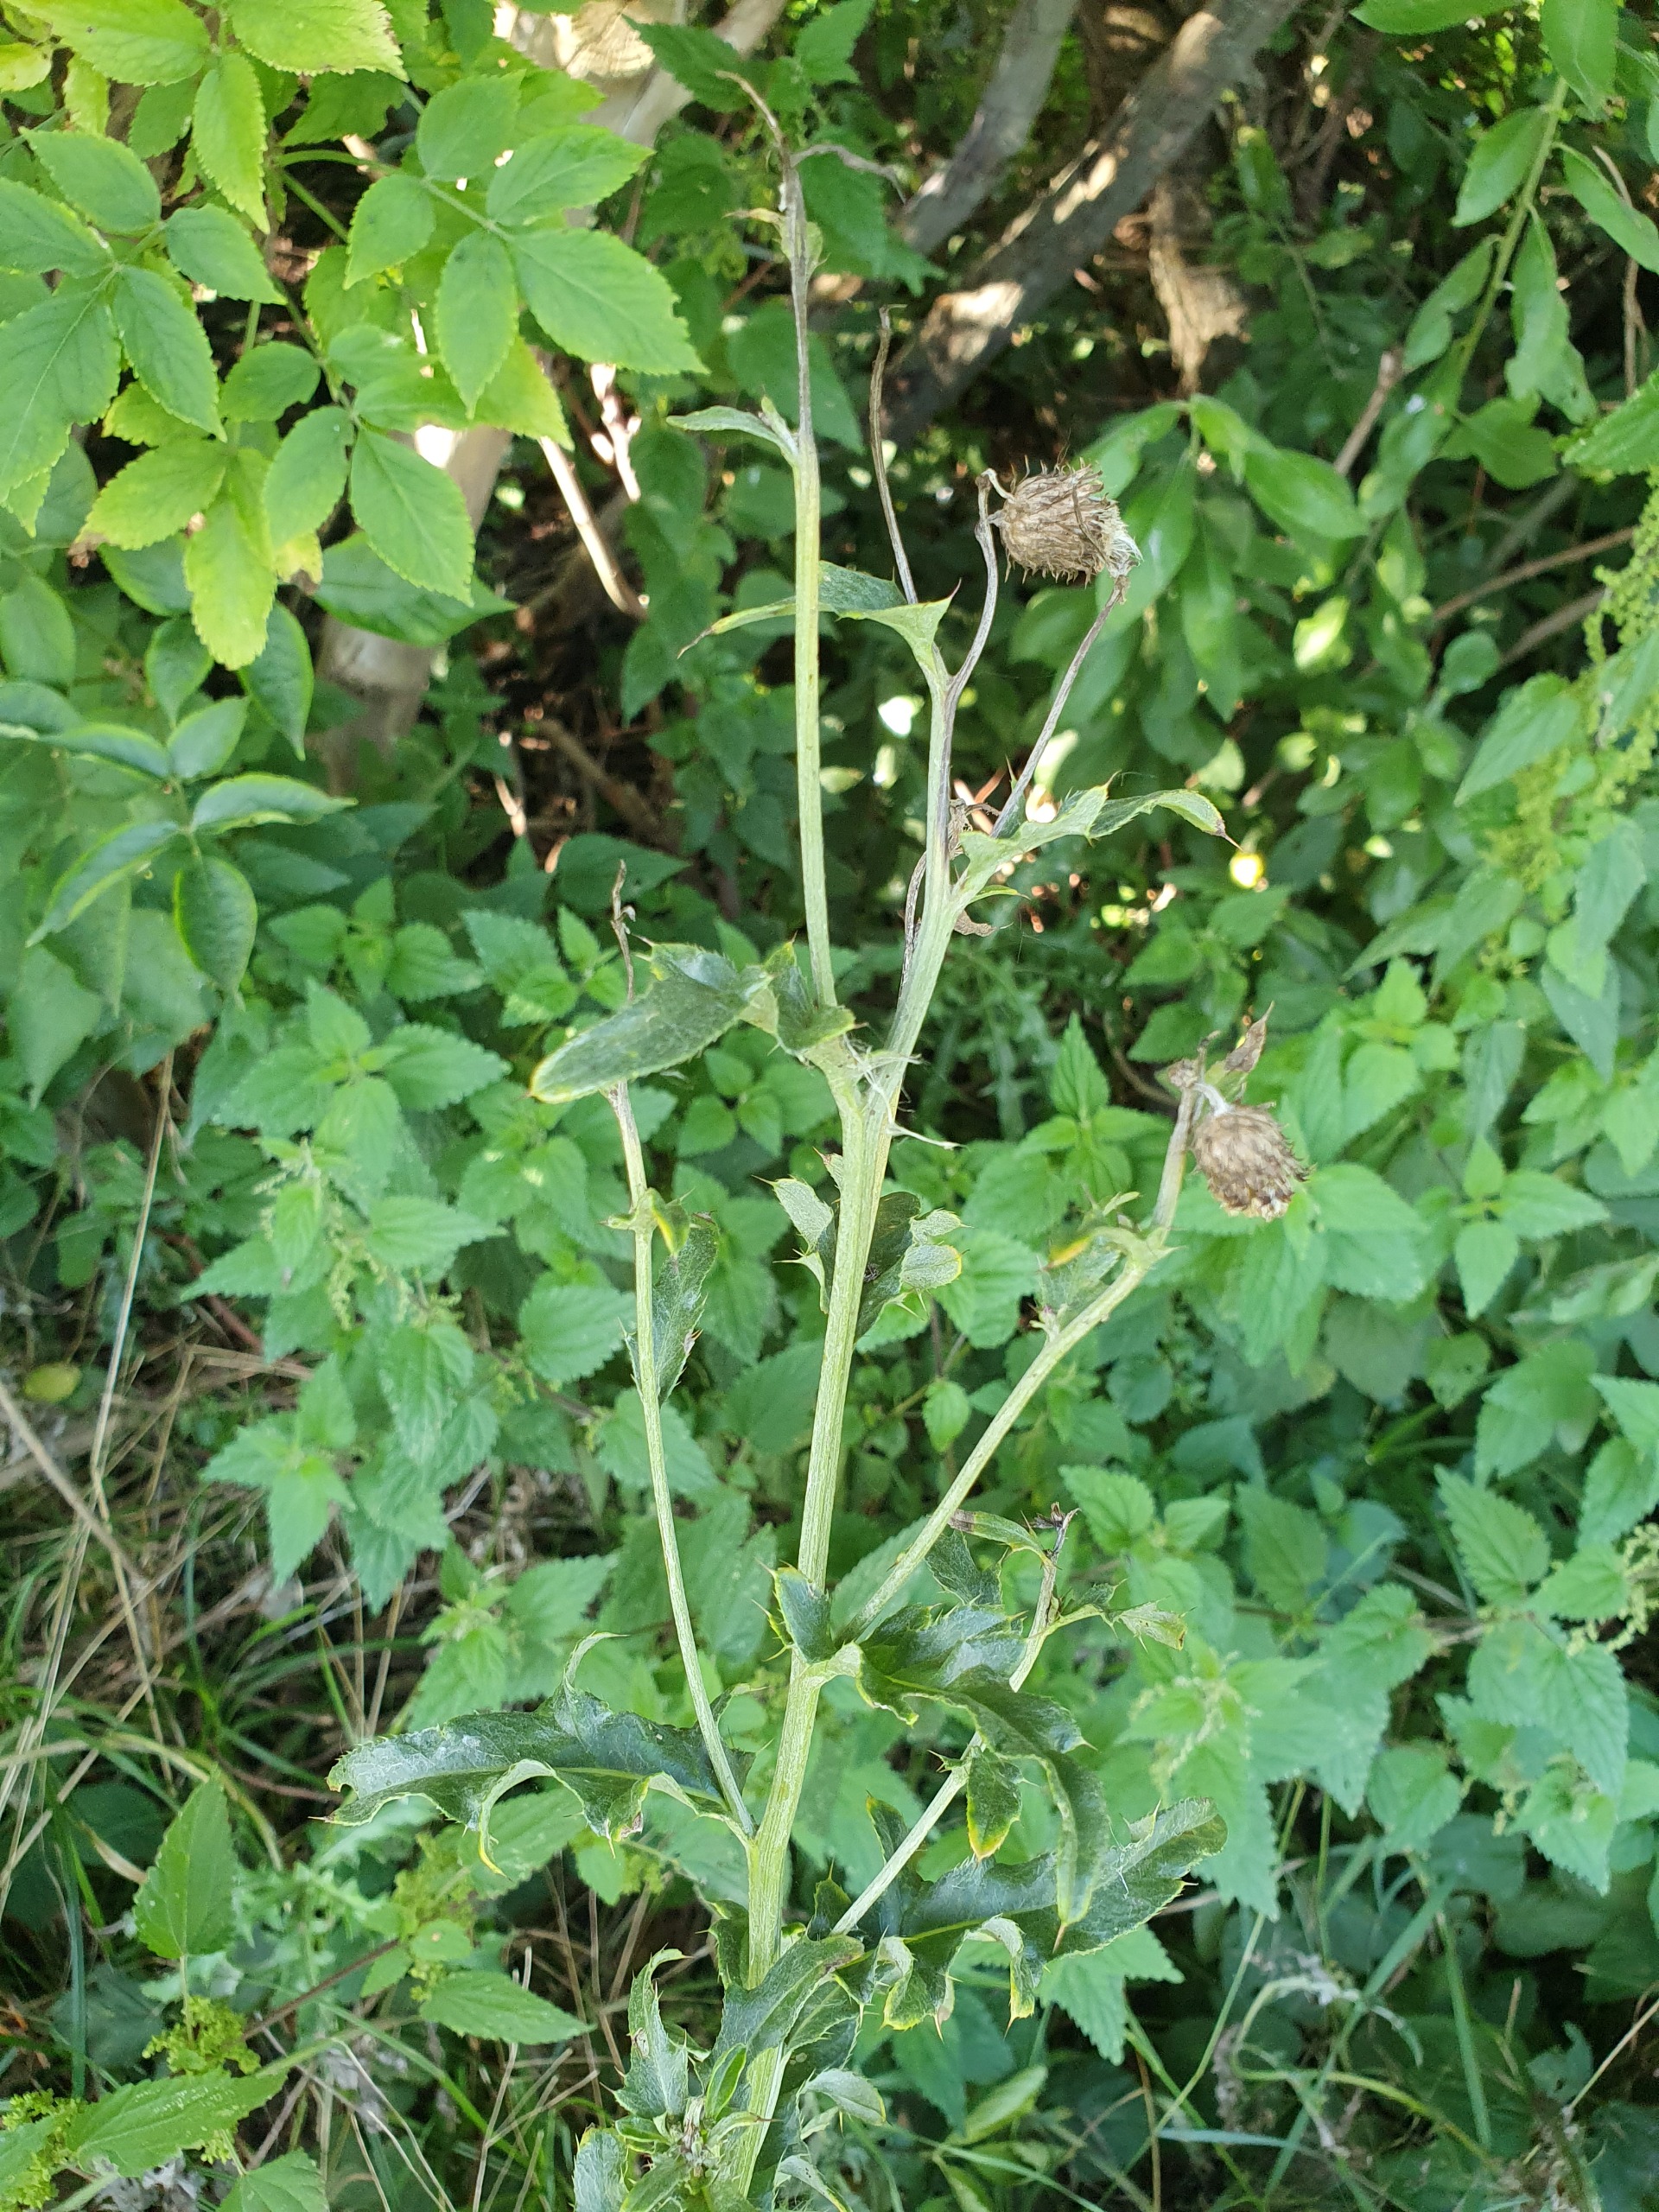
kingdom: Plantae
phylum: Tracheophyta
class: Magnoliopsida
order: Asterales
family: Asteraceae
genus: Cirsium
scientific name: Cirsium arvense
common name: Ager-tidsel
